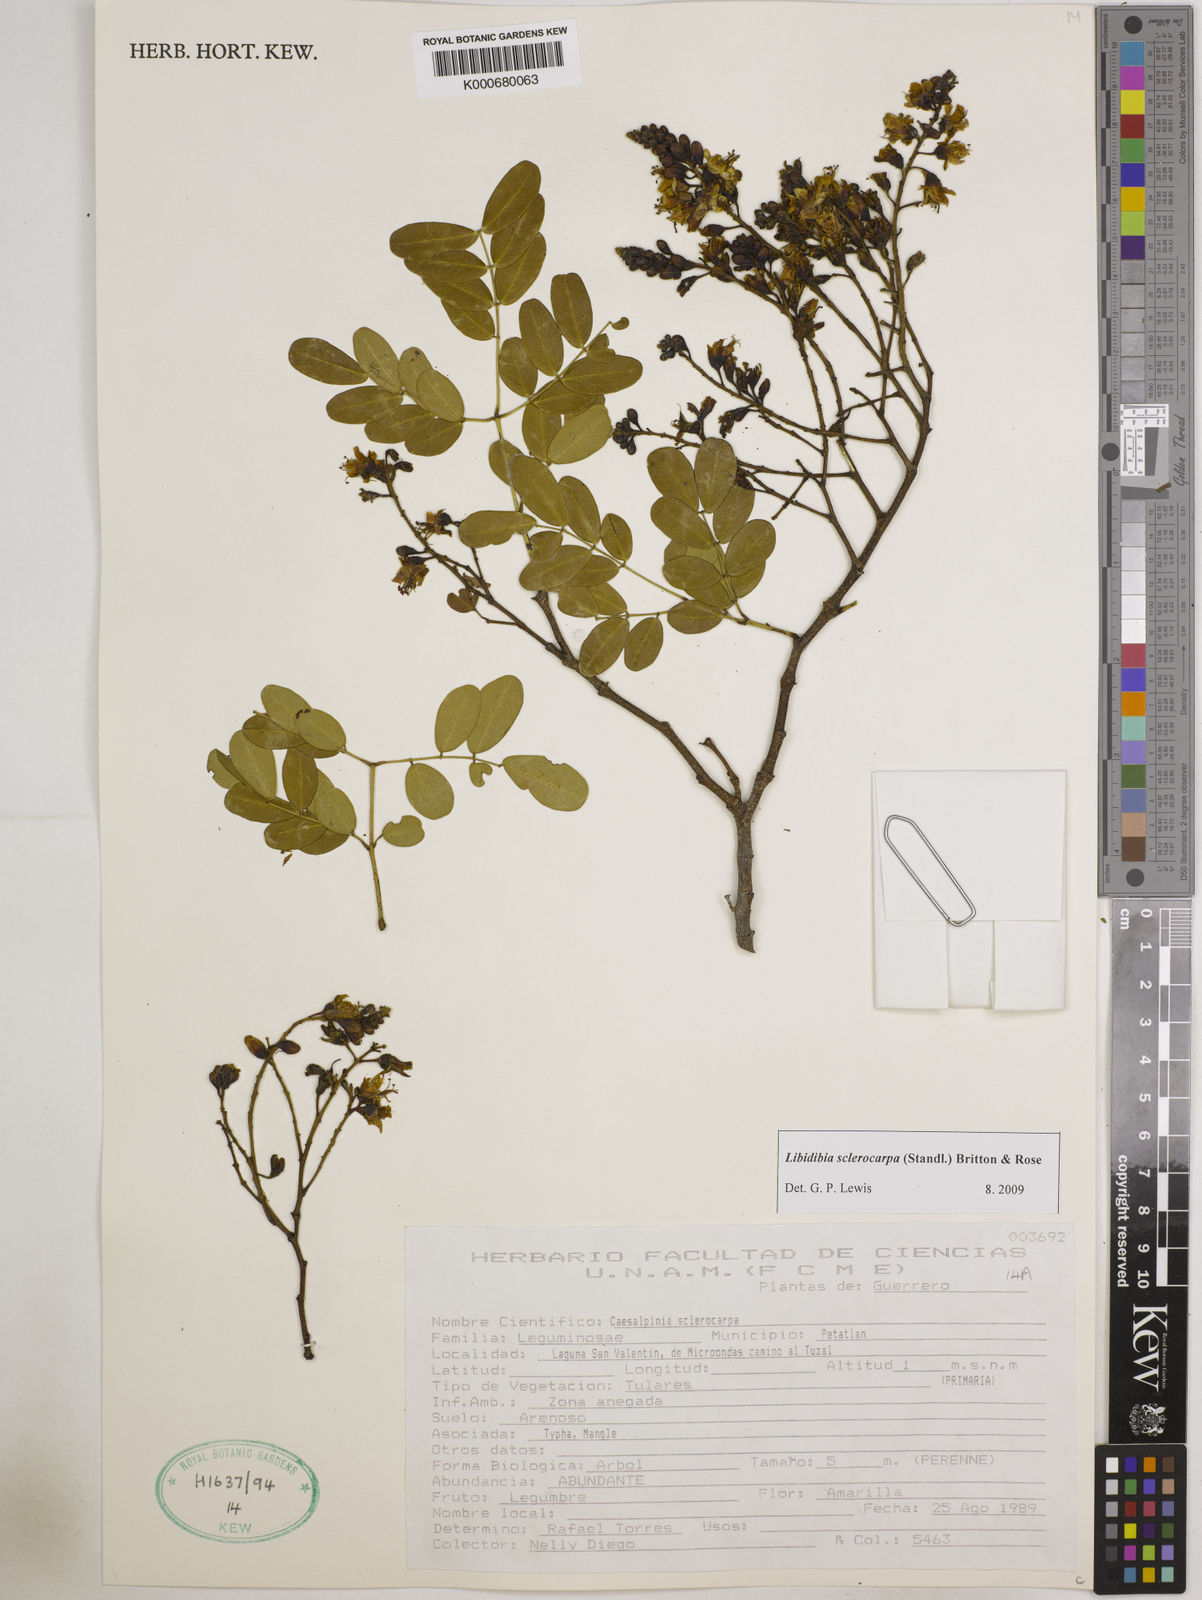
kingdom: Plantae
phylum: Tracheophyta
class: Magnoliopsida
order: Fabales
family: Fabaceae
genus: Libidibia
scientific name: Libidibia sclerocarpa
